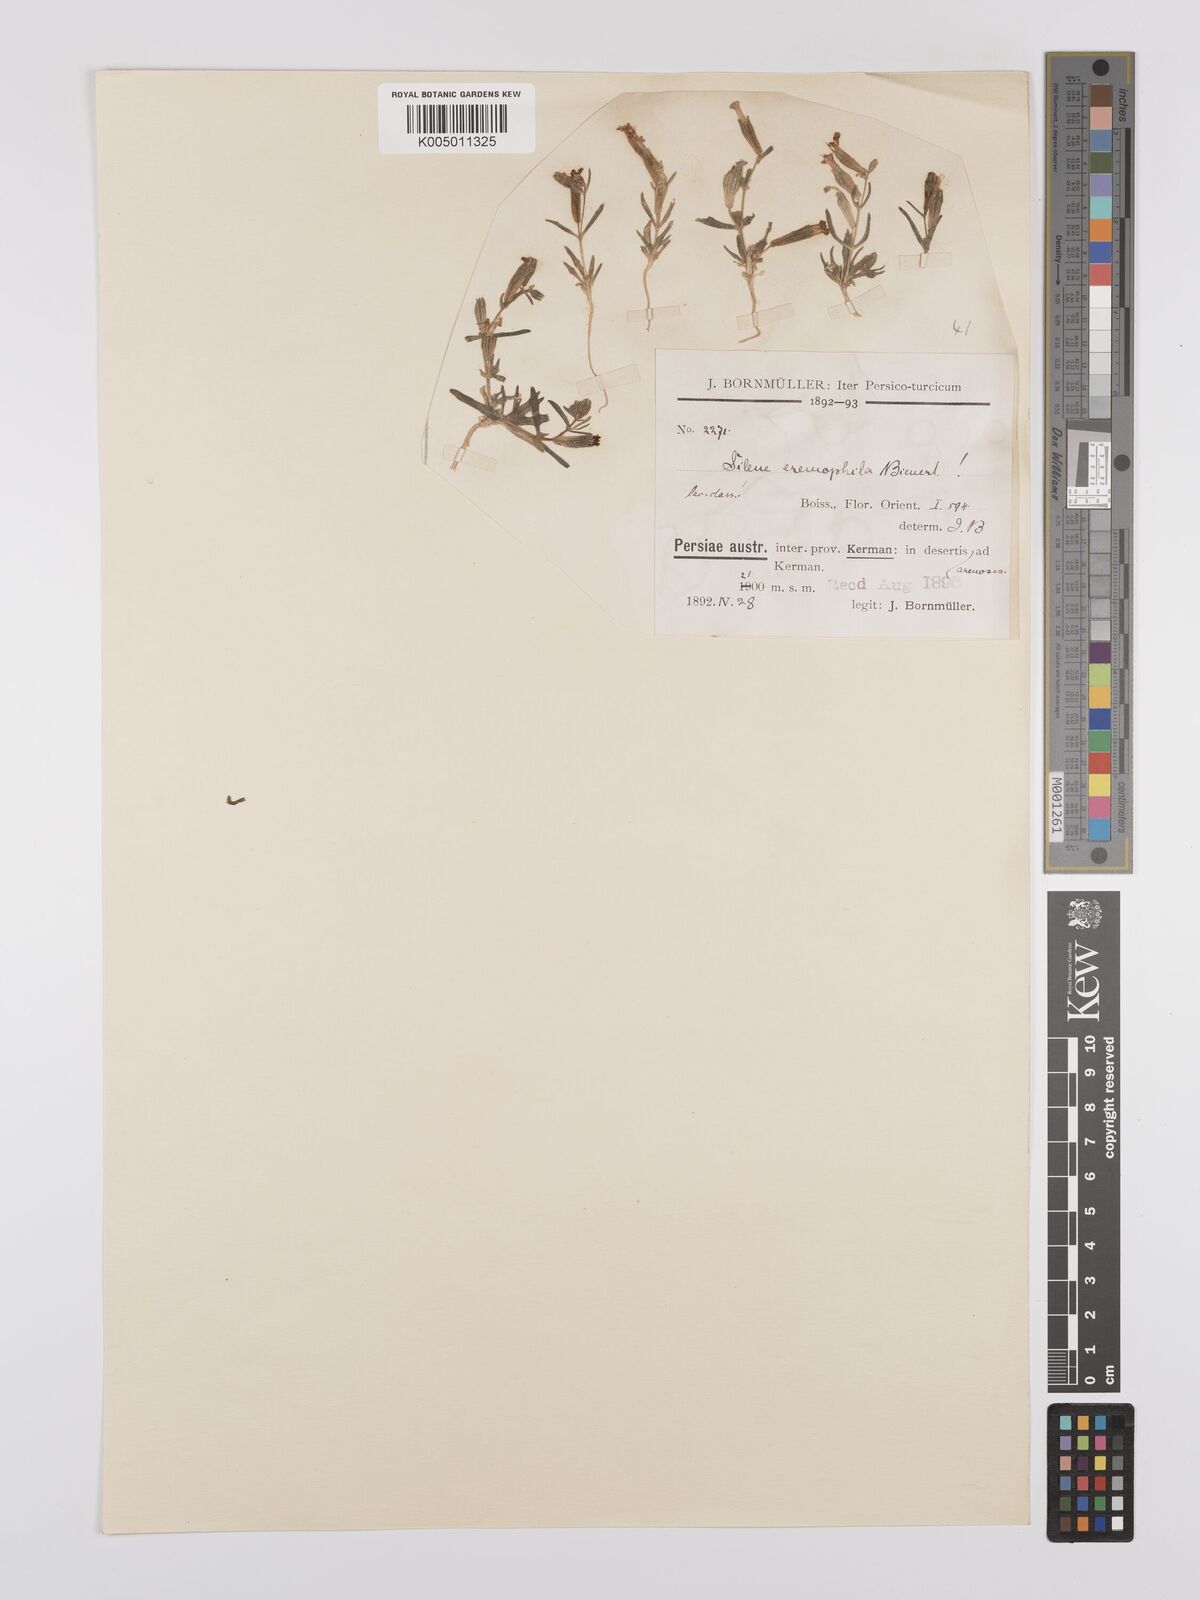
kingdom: Plantae
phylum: Tracheophyta
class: Magnoliopsida
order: Caryophyllales
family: Caryophyllaceae
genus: Silene
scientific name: Silene arabica
